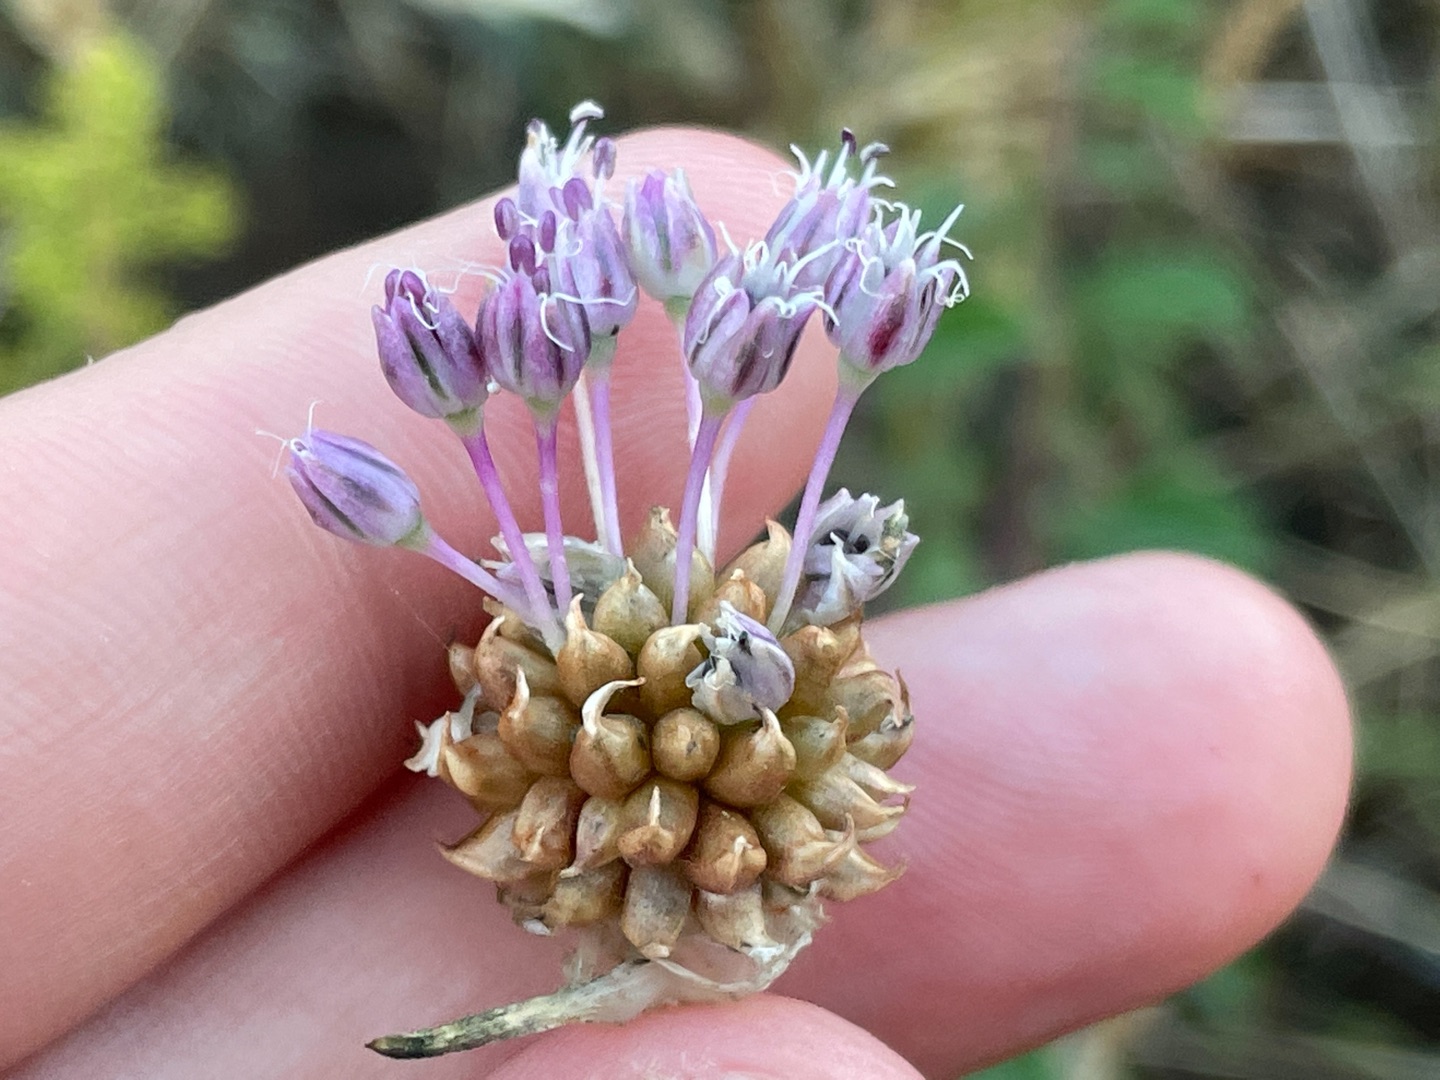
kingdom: Plantae
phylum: Tracheophyta
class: Liliopsida
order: Asparagales
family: Amaryllidaceae
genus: Allium
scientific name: Allium vineale
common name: Sand-løg
